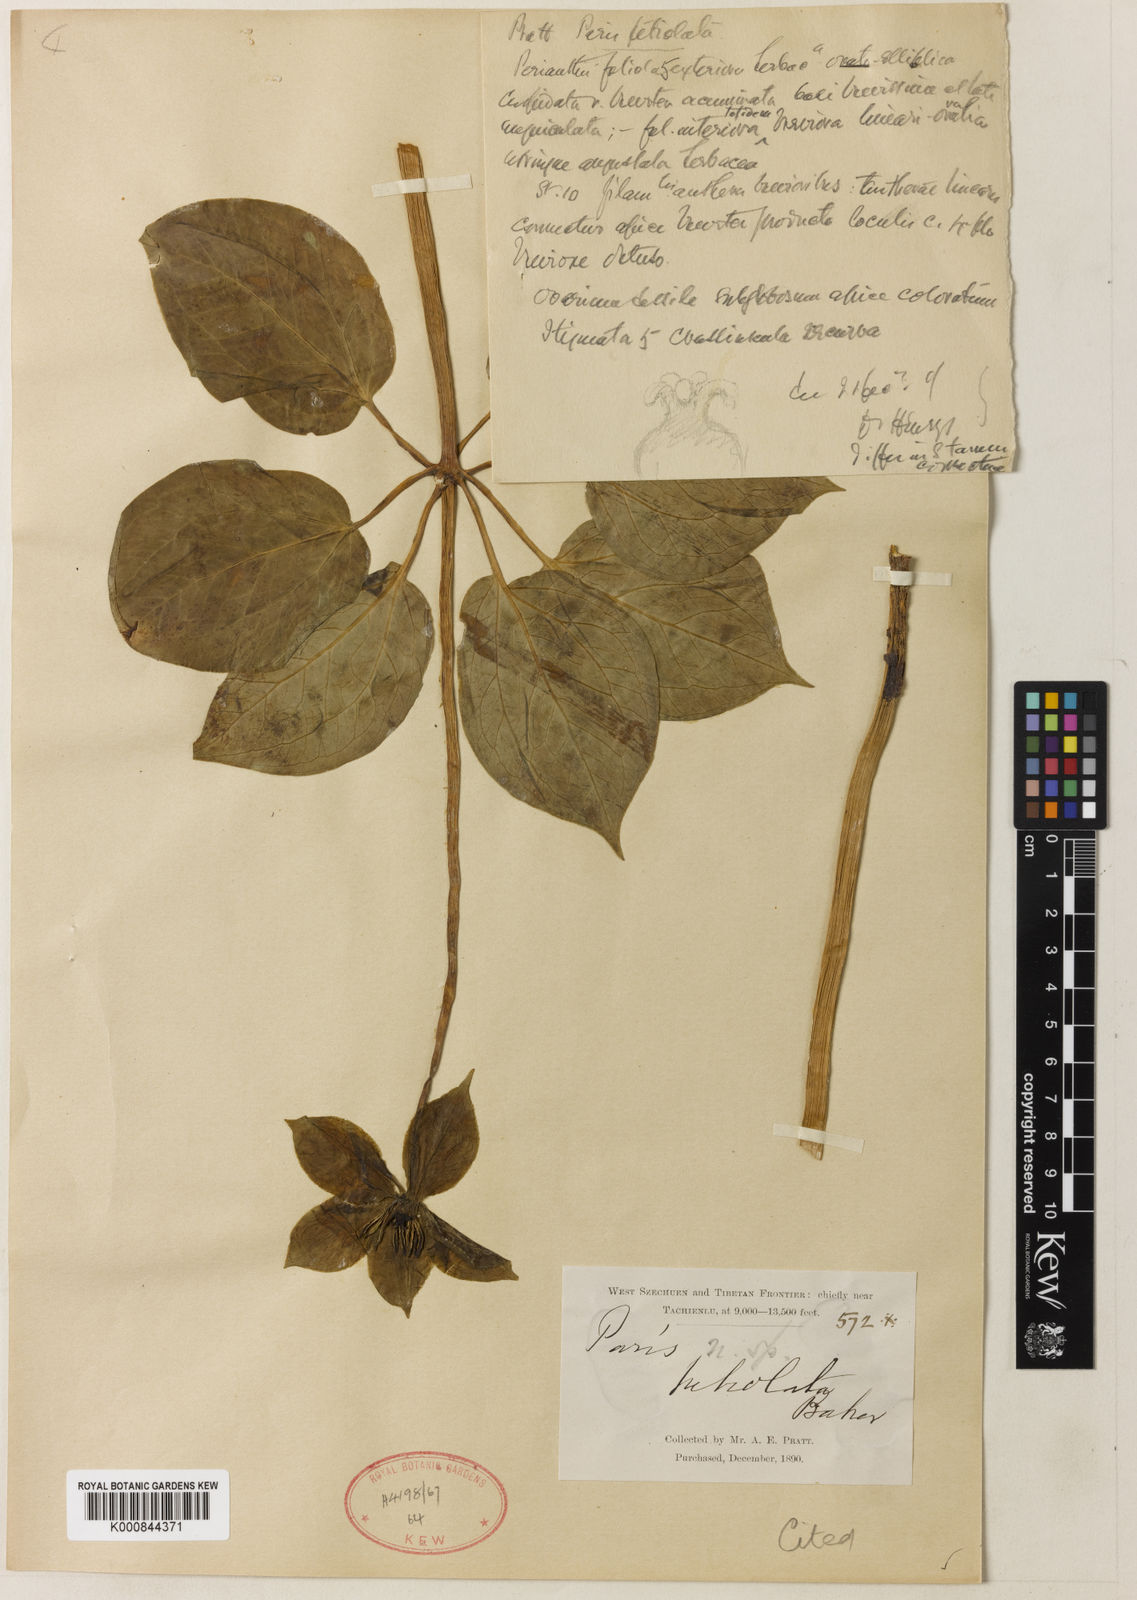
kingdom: Plantae
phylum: Tracheophyta
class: Liliopsida
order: Liliales
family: Melanthiaceae
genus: Paris
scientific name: Paris chinensis
